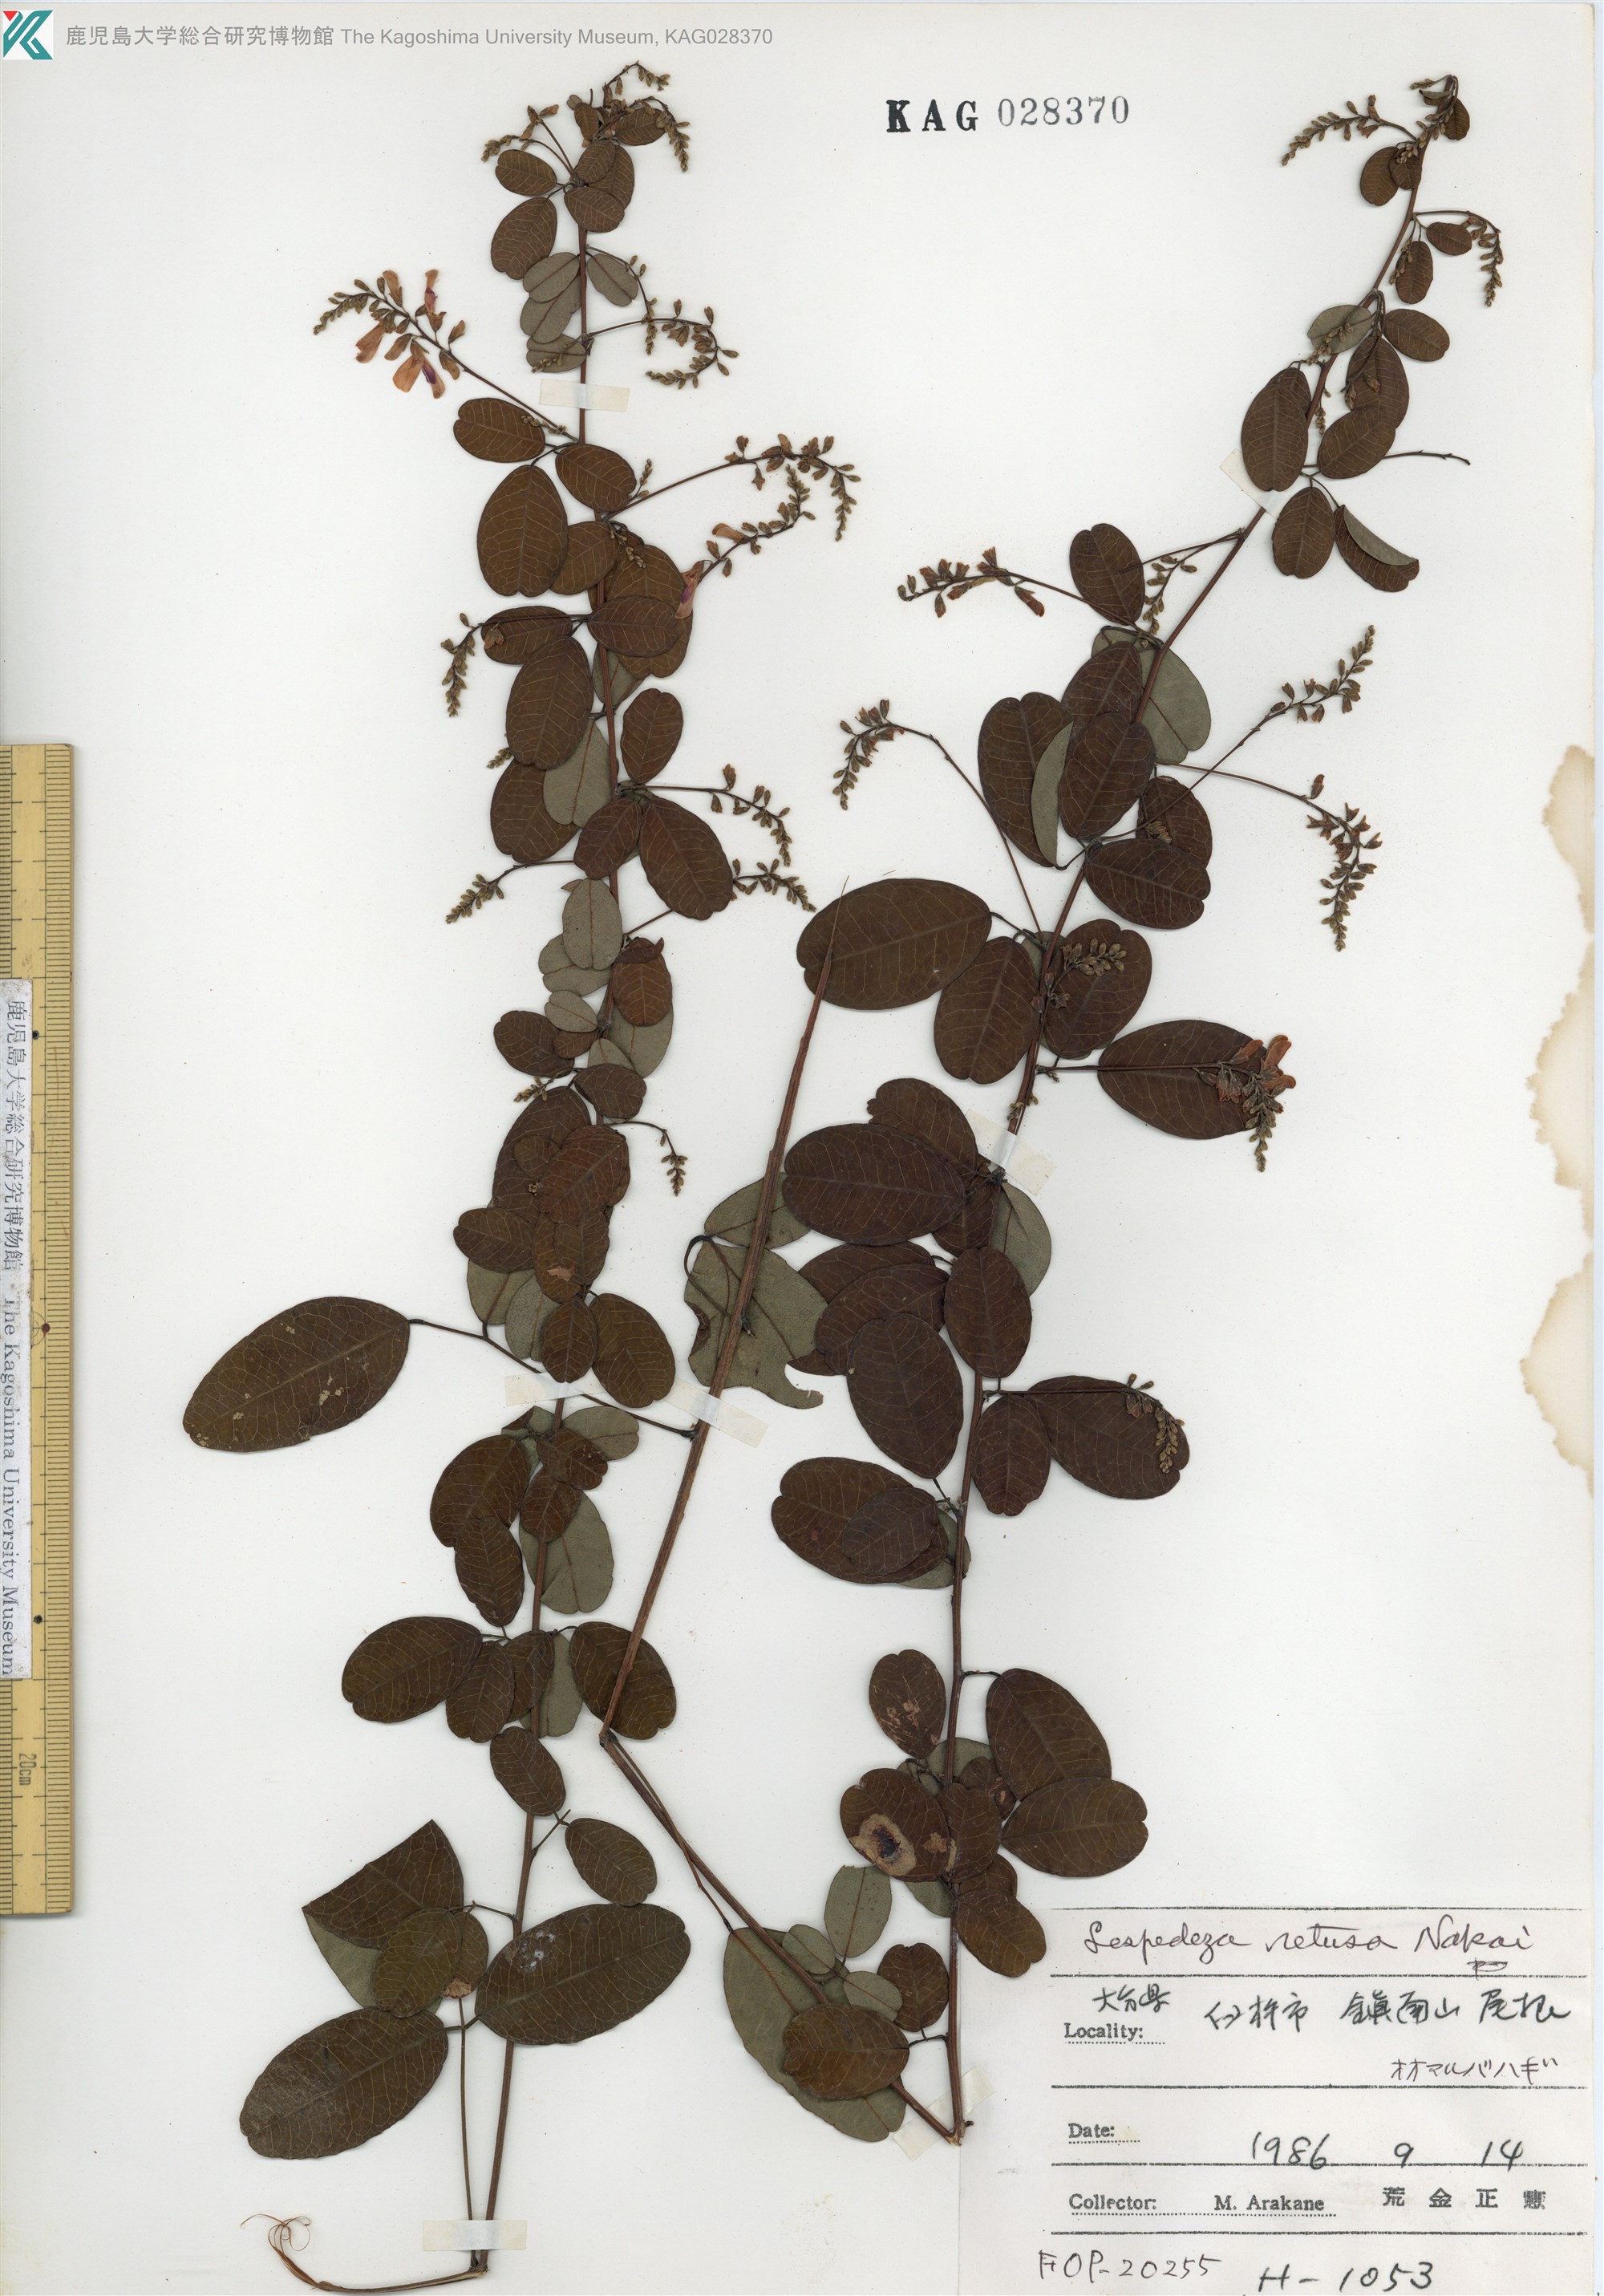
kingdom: Plantae
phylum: Tracheophyta
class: Magnoliopsida
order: Fabales
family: Fabaceae
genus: Lespedeza
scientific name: Lespedeza homoloba
